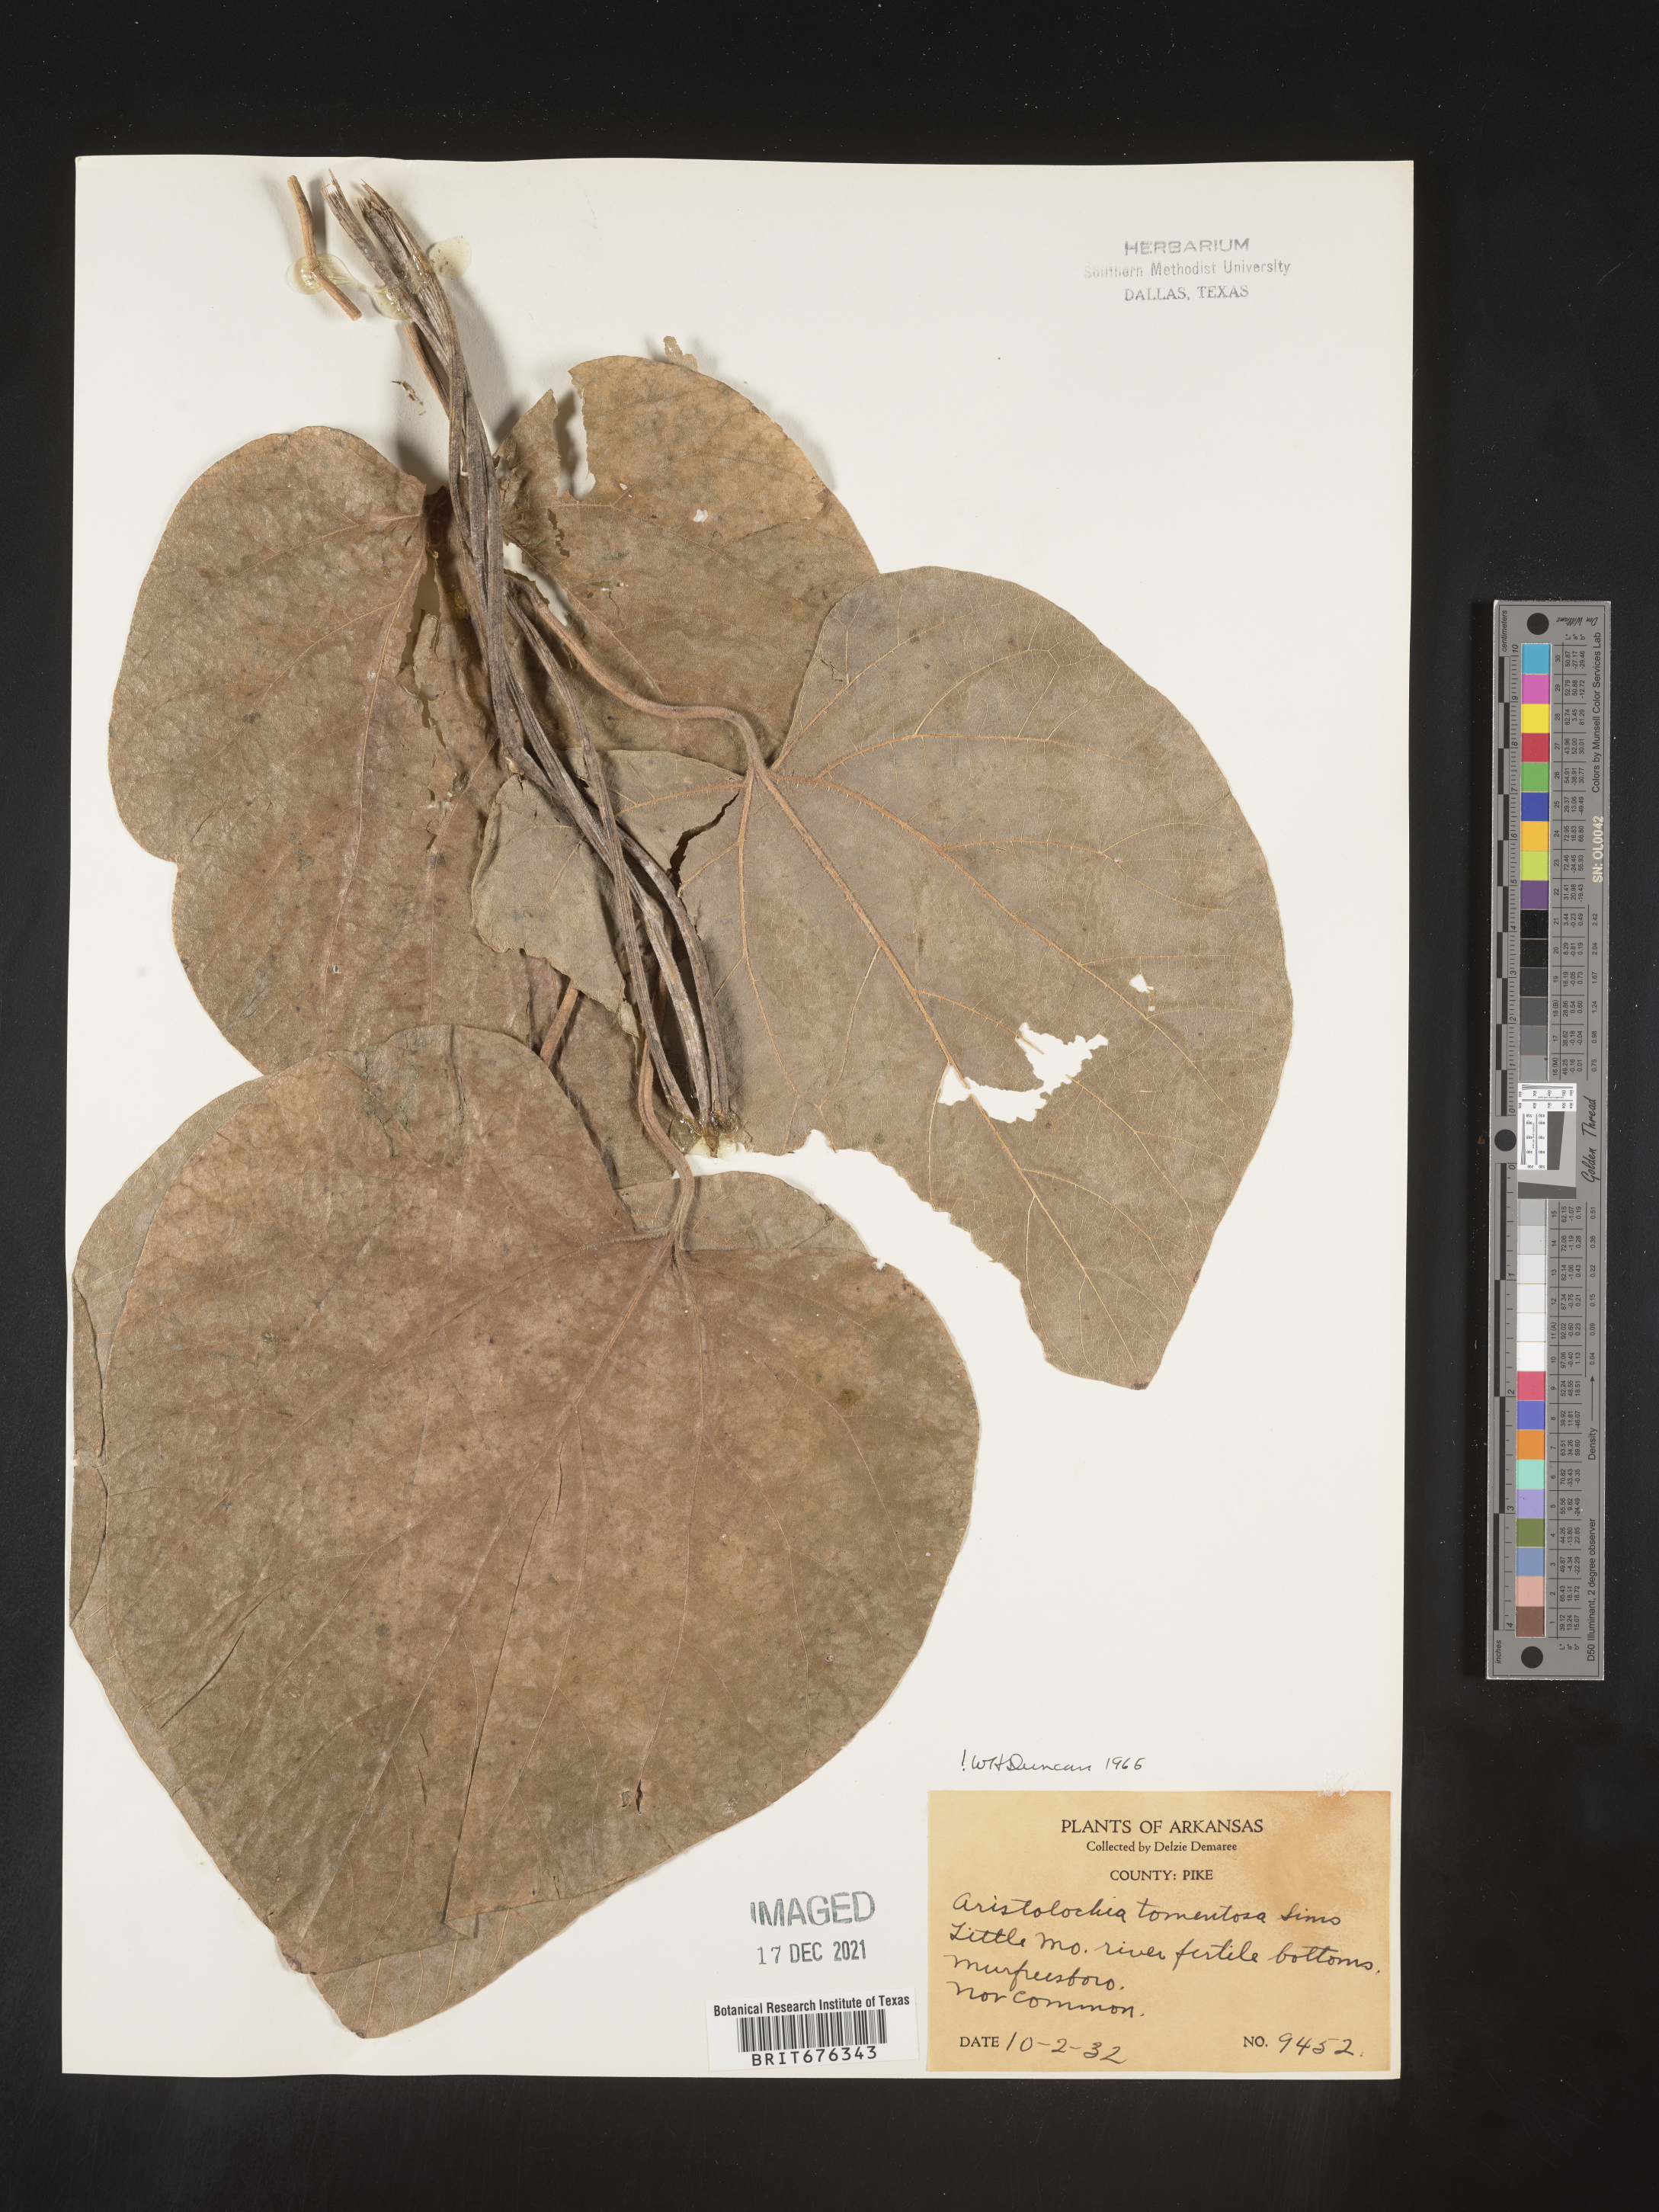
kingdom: Plantae
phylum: Tracheophyta
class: Magnoliopsida
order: Piperales
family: Aristolochiaceae
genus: Isotrema
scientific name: Isotrema tomentosum
